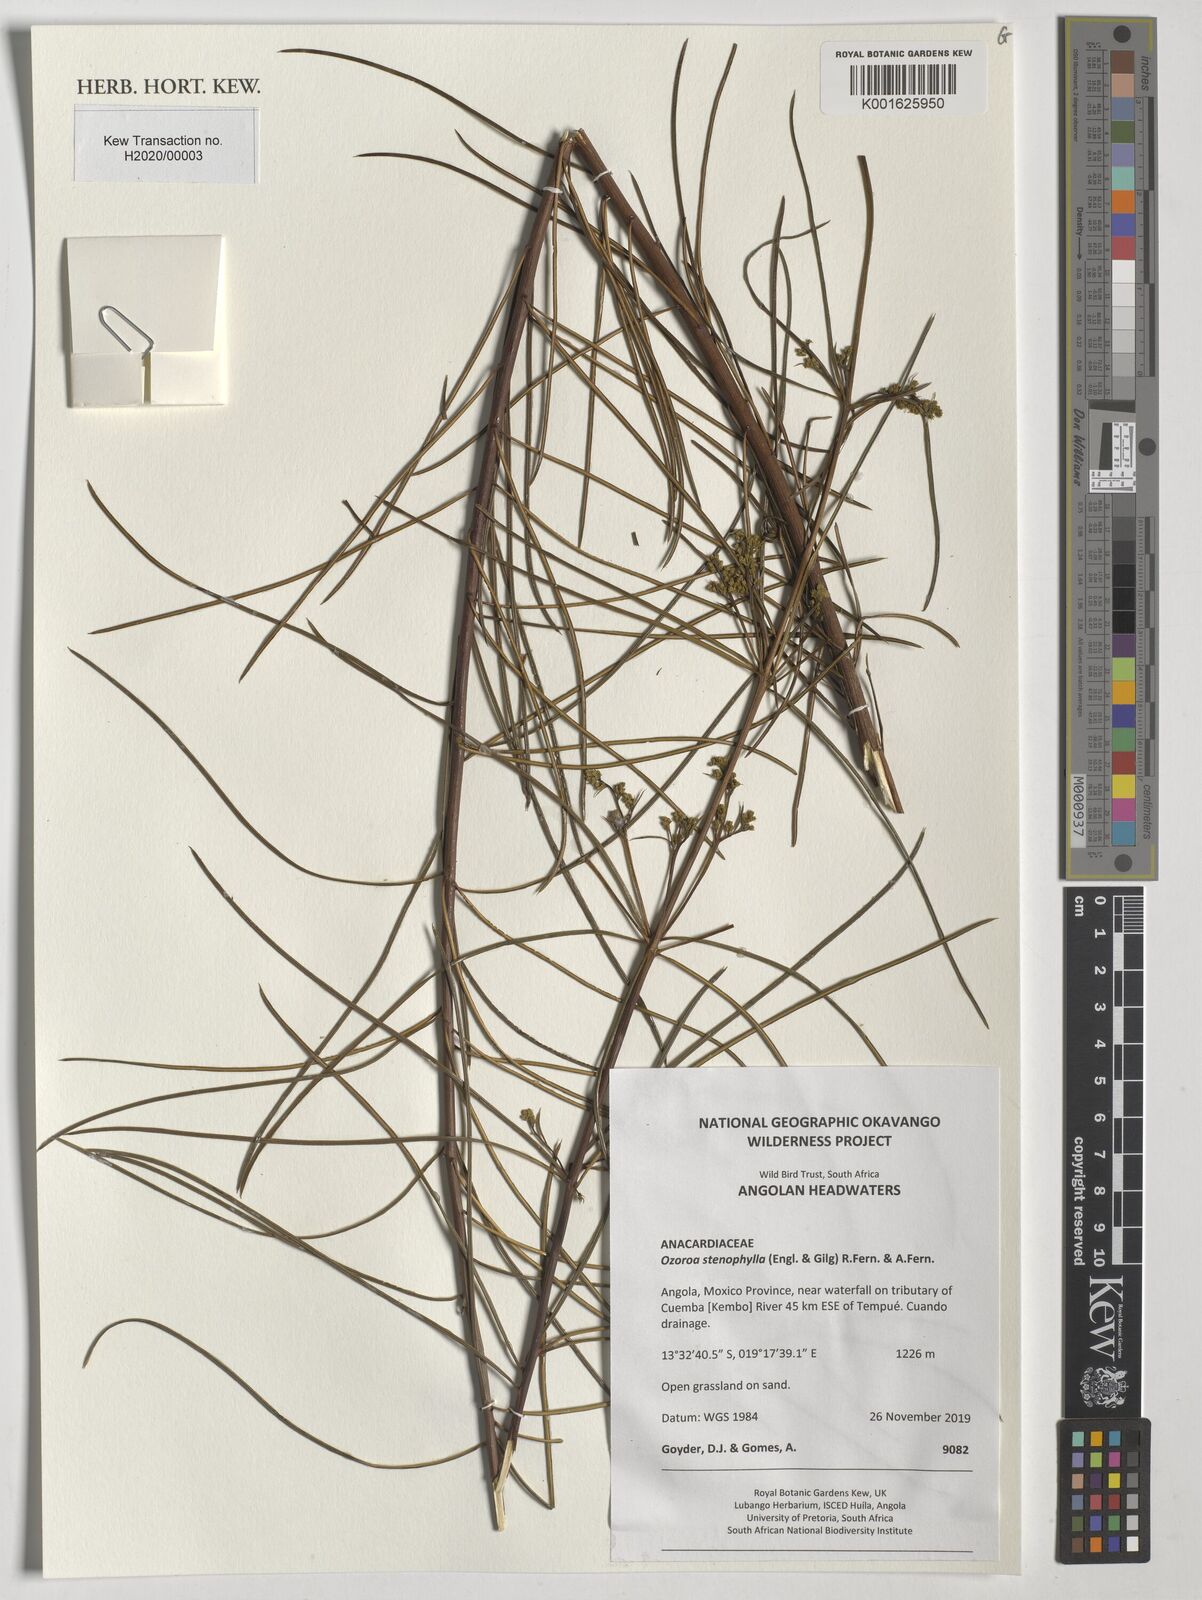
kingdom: Plantae
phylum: Tracheophyta
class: Magnoliopsida
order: Sapindales
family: Anacardiaceae
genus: Ozoroa
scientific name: Ozoroa stenophylla
